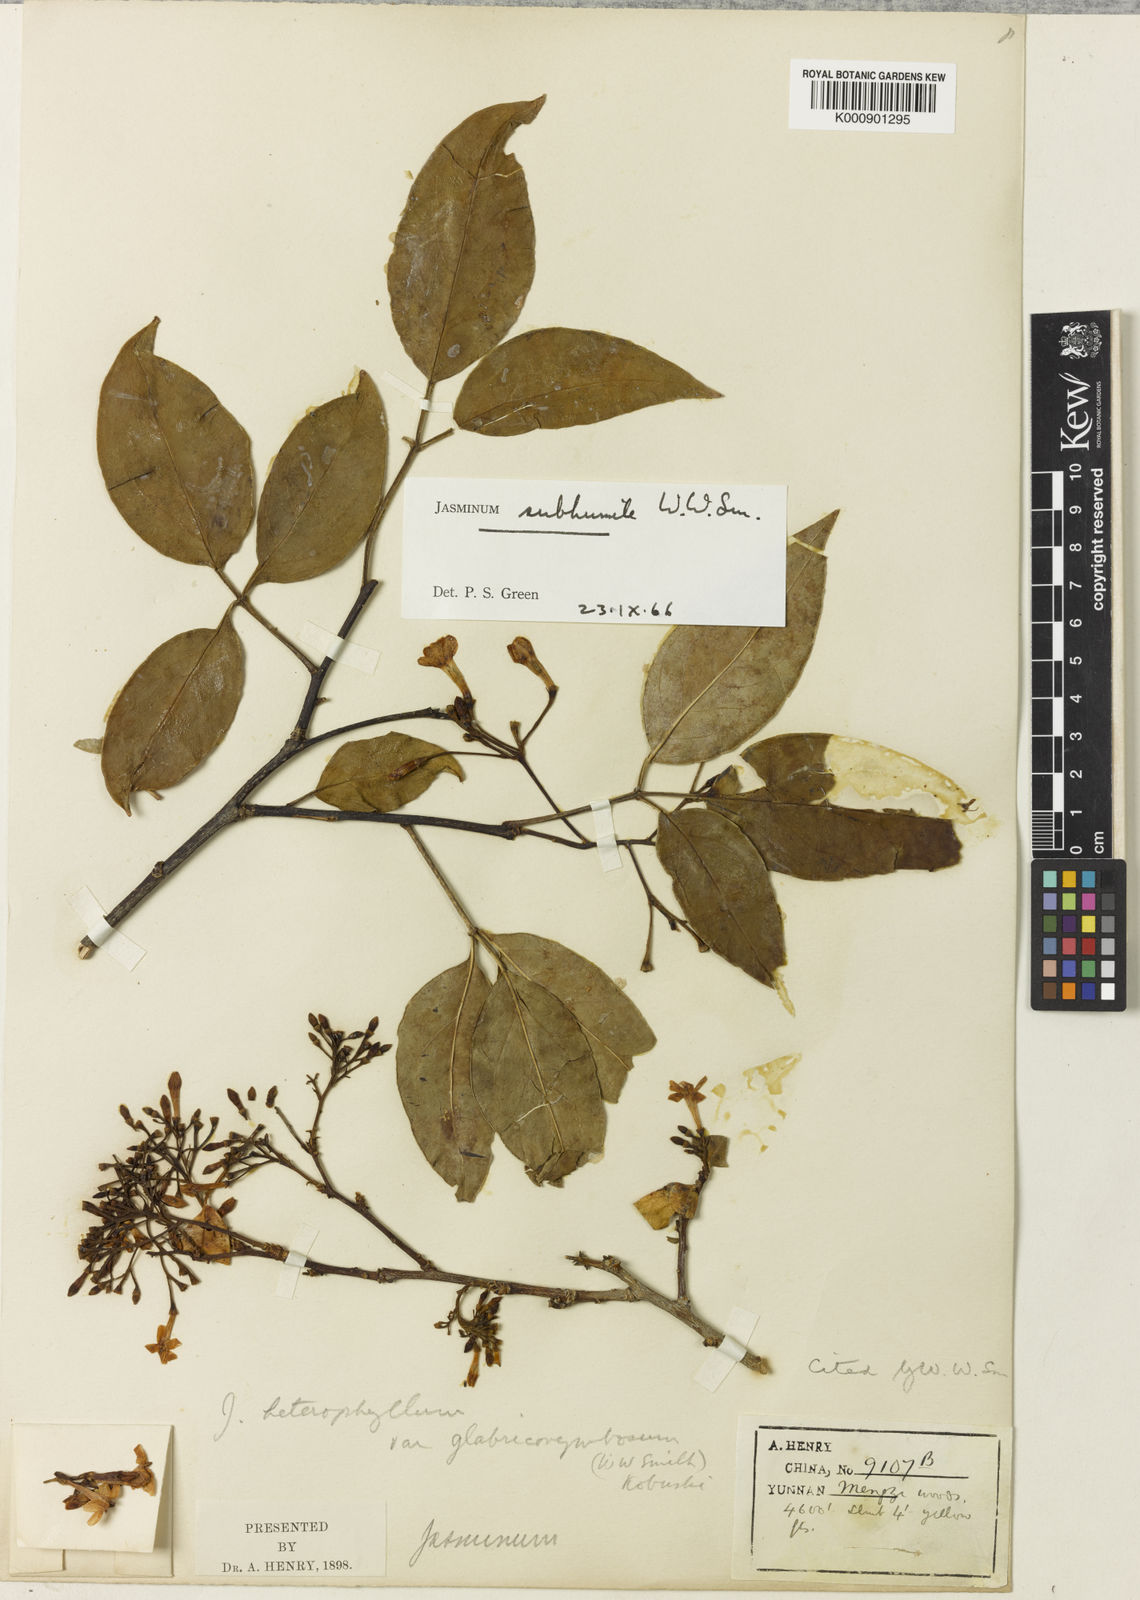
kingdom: Plantae
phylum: Tracheophyta
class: Magnoliopsida
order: Lamiales
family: Oleaceae
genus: Chrysojasminum
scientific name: Chrysojasminum subhumile
